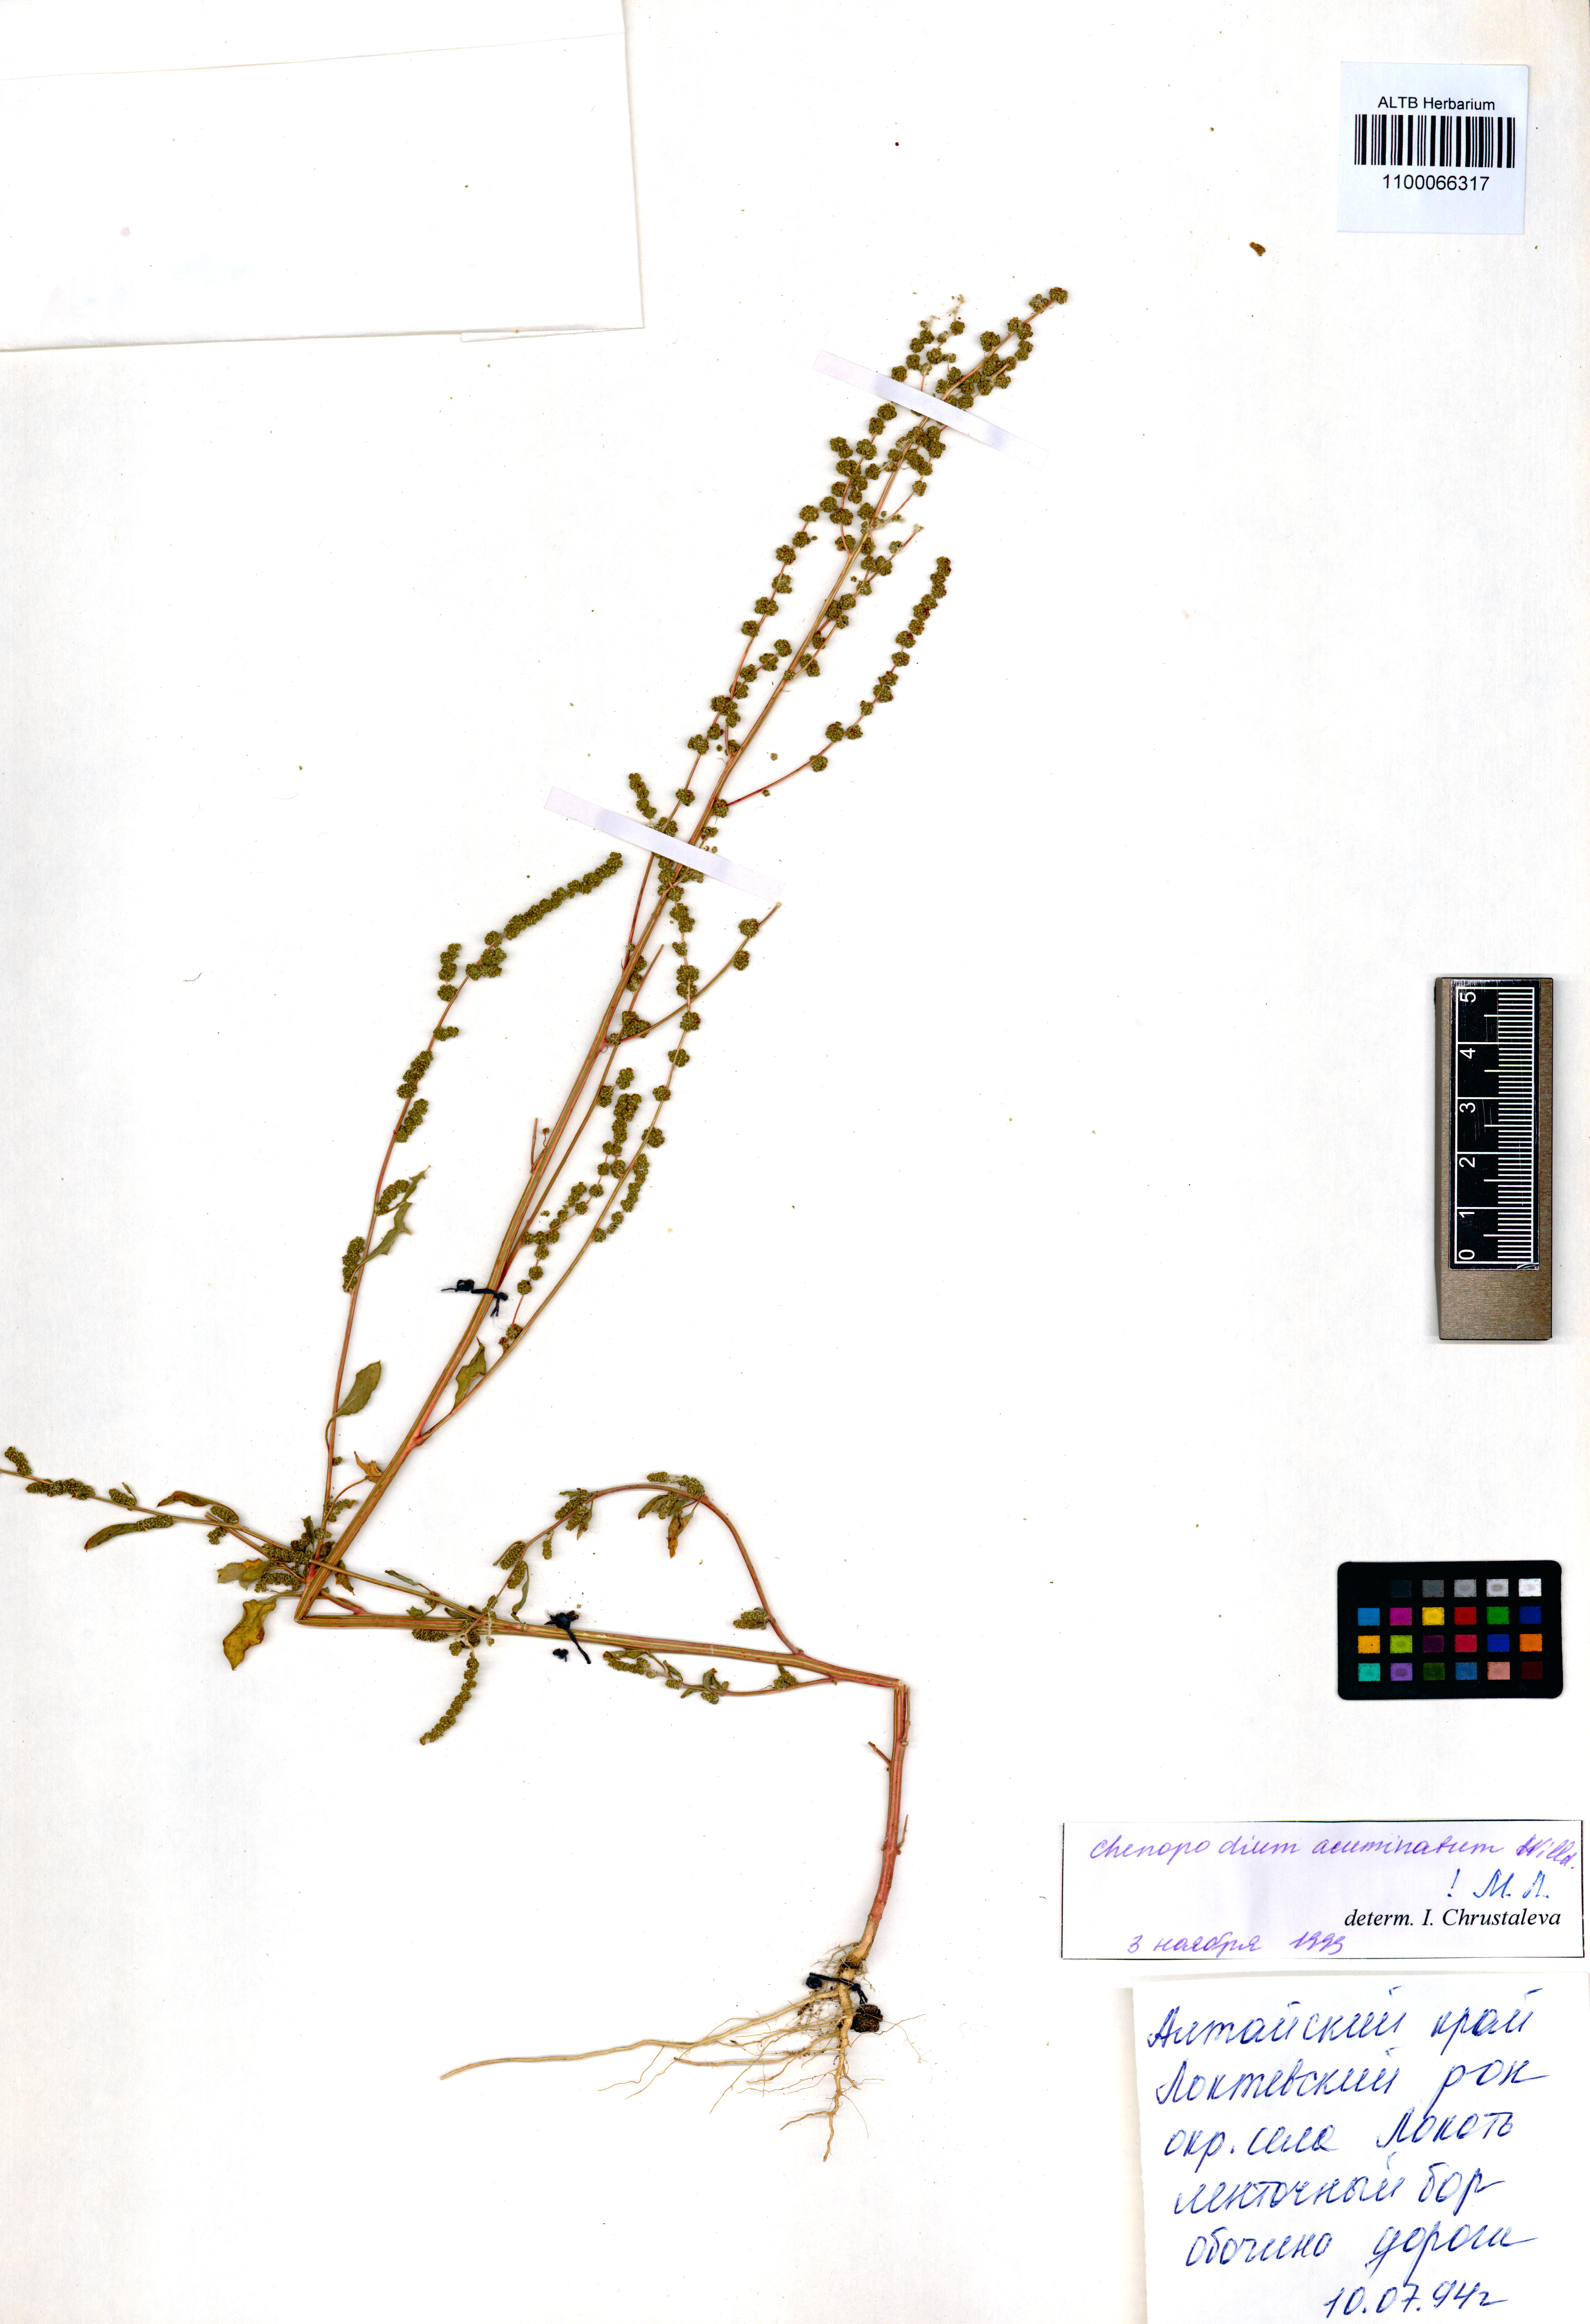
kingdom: Plantae
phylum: Tracheophyta
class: Magnoliopsida
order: Caryophyllales
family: Amaranthaceae
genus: Chenopodium
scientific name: Chenopodium acuminatum
